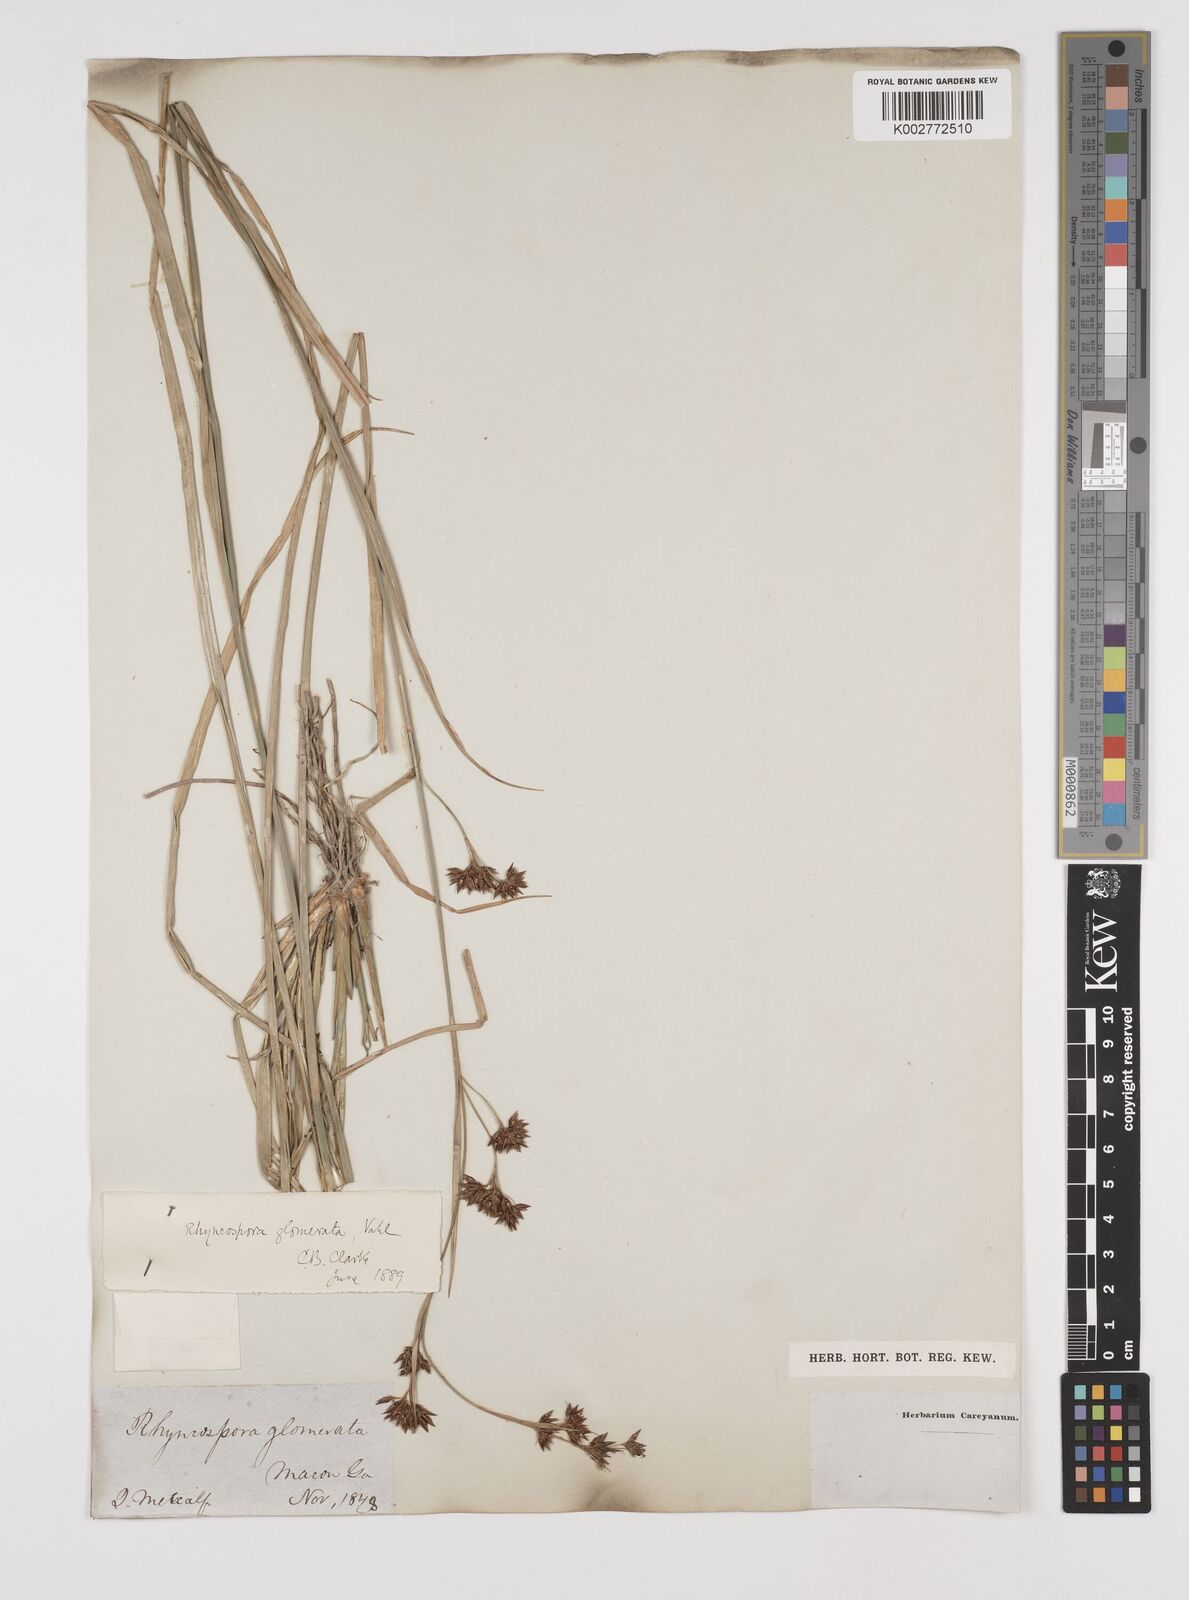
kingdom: Plantae
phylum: Tracheophyta
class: Liliopsida
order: Poales
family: Cyperaceae
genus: Rhynchospora
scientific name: Rhynchospora glomerata
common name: Cluster beak sedge
